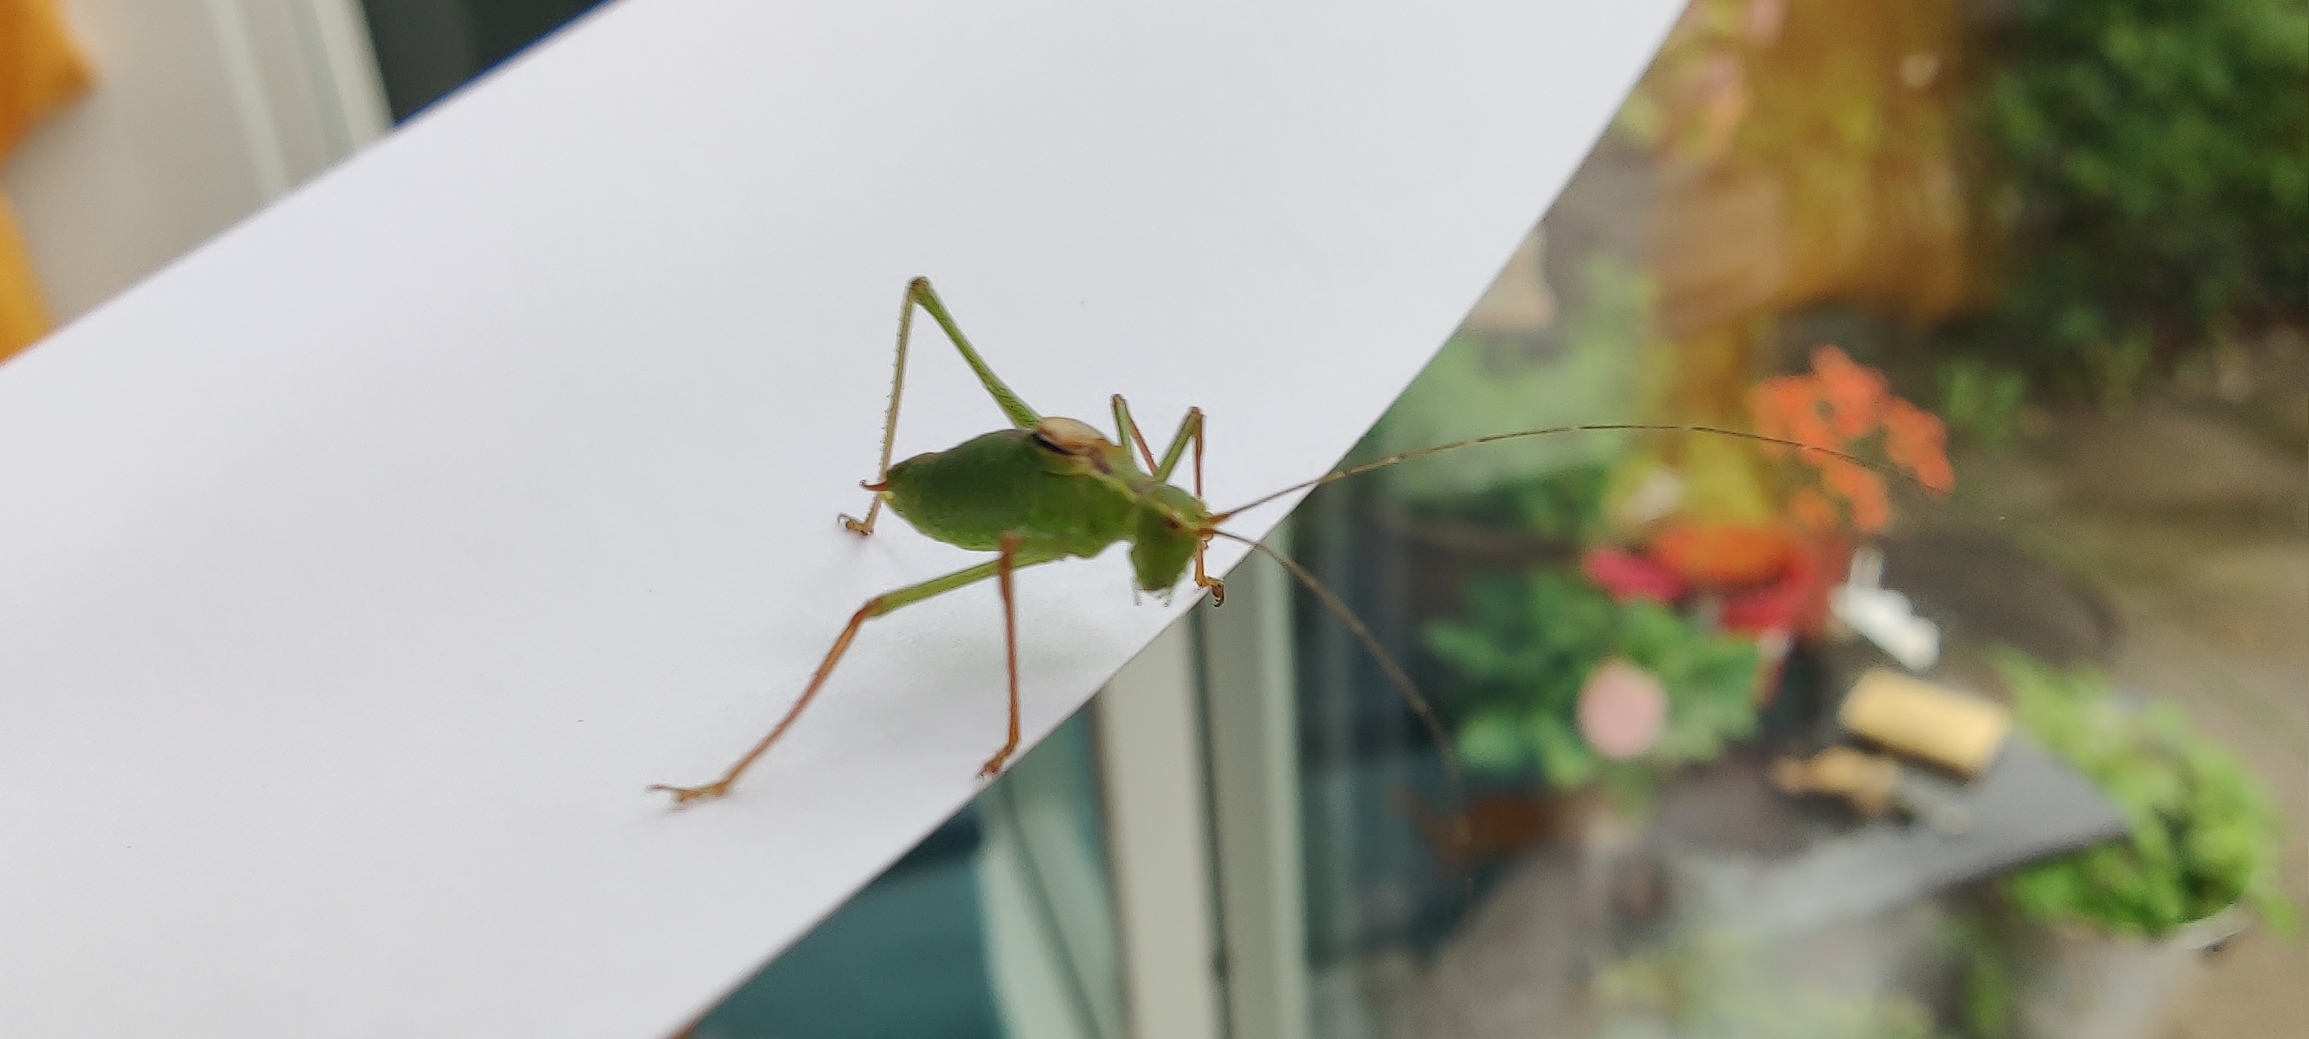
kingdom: Animalia
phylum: Arthropoda
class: Insecta
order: Orthoptera
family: Tettigoniidae
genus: Leptophyes
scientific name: Leptophyes punctatissima
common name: Krumknivgræshoppe
